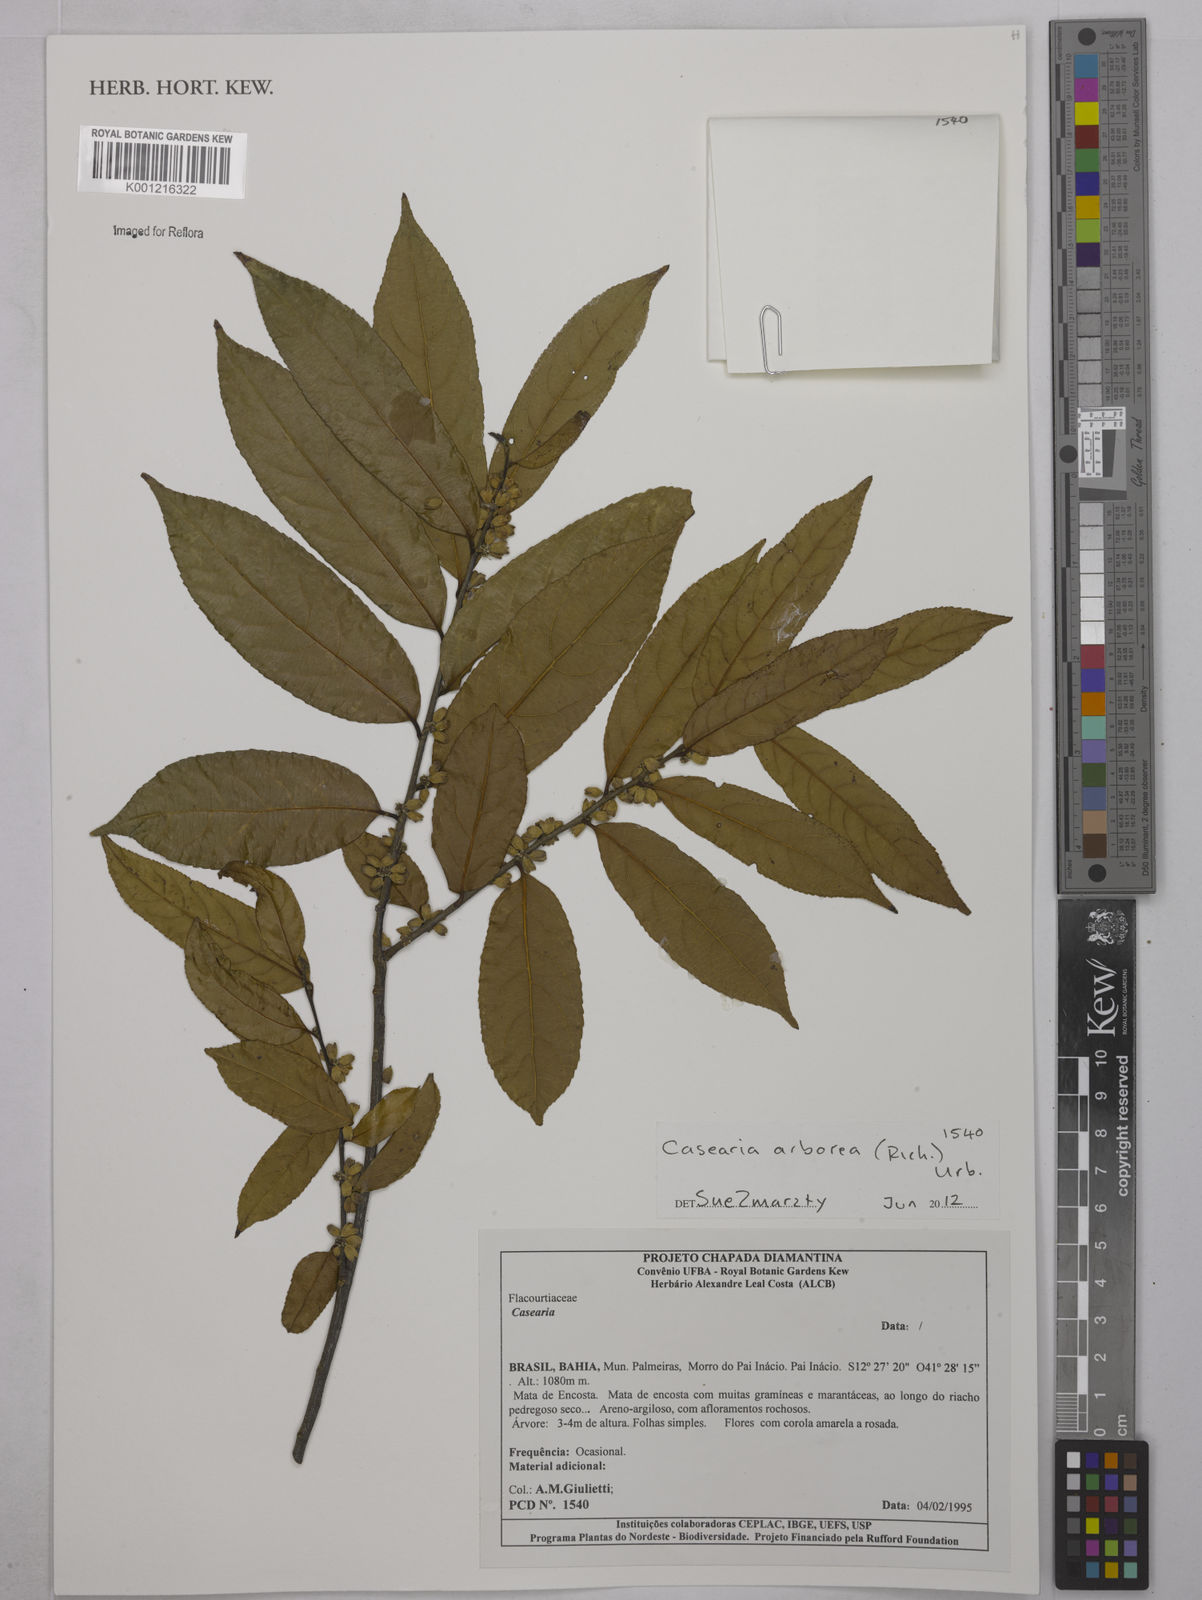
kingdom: Plantae
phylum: Tracheophyta
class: Magnoliopsida
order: Malpighiales
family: Salicaceae
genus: Casearia
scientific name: Casearia arborea
